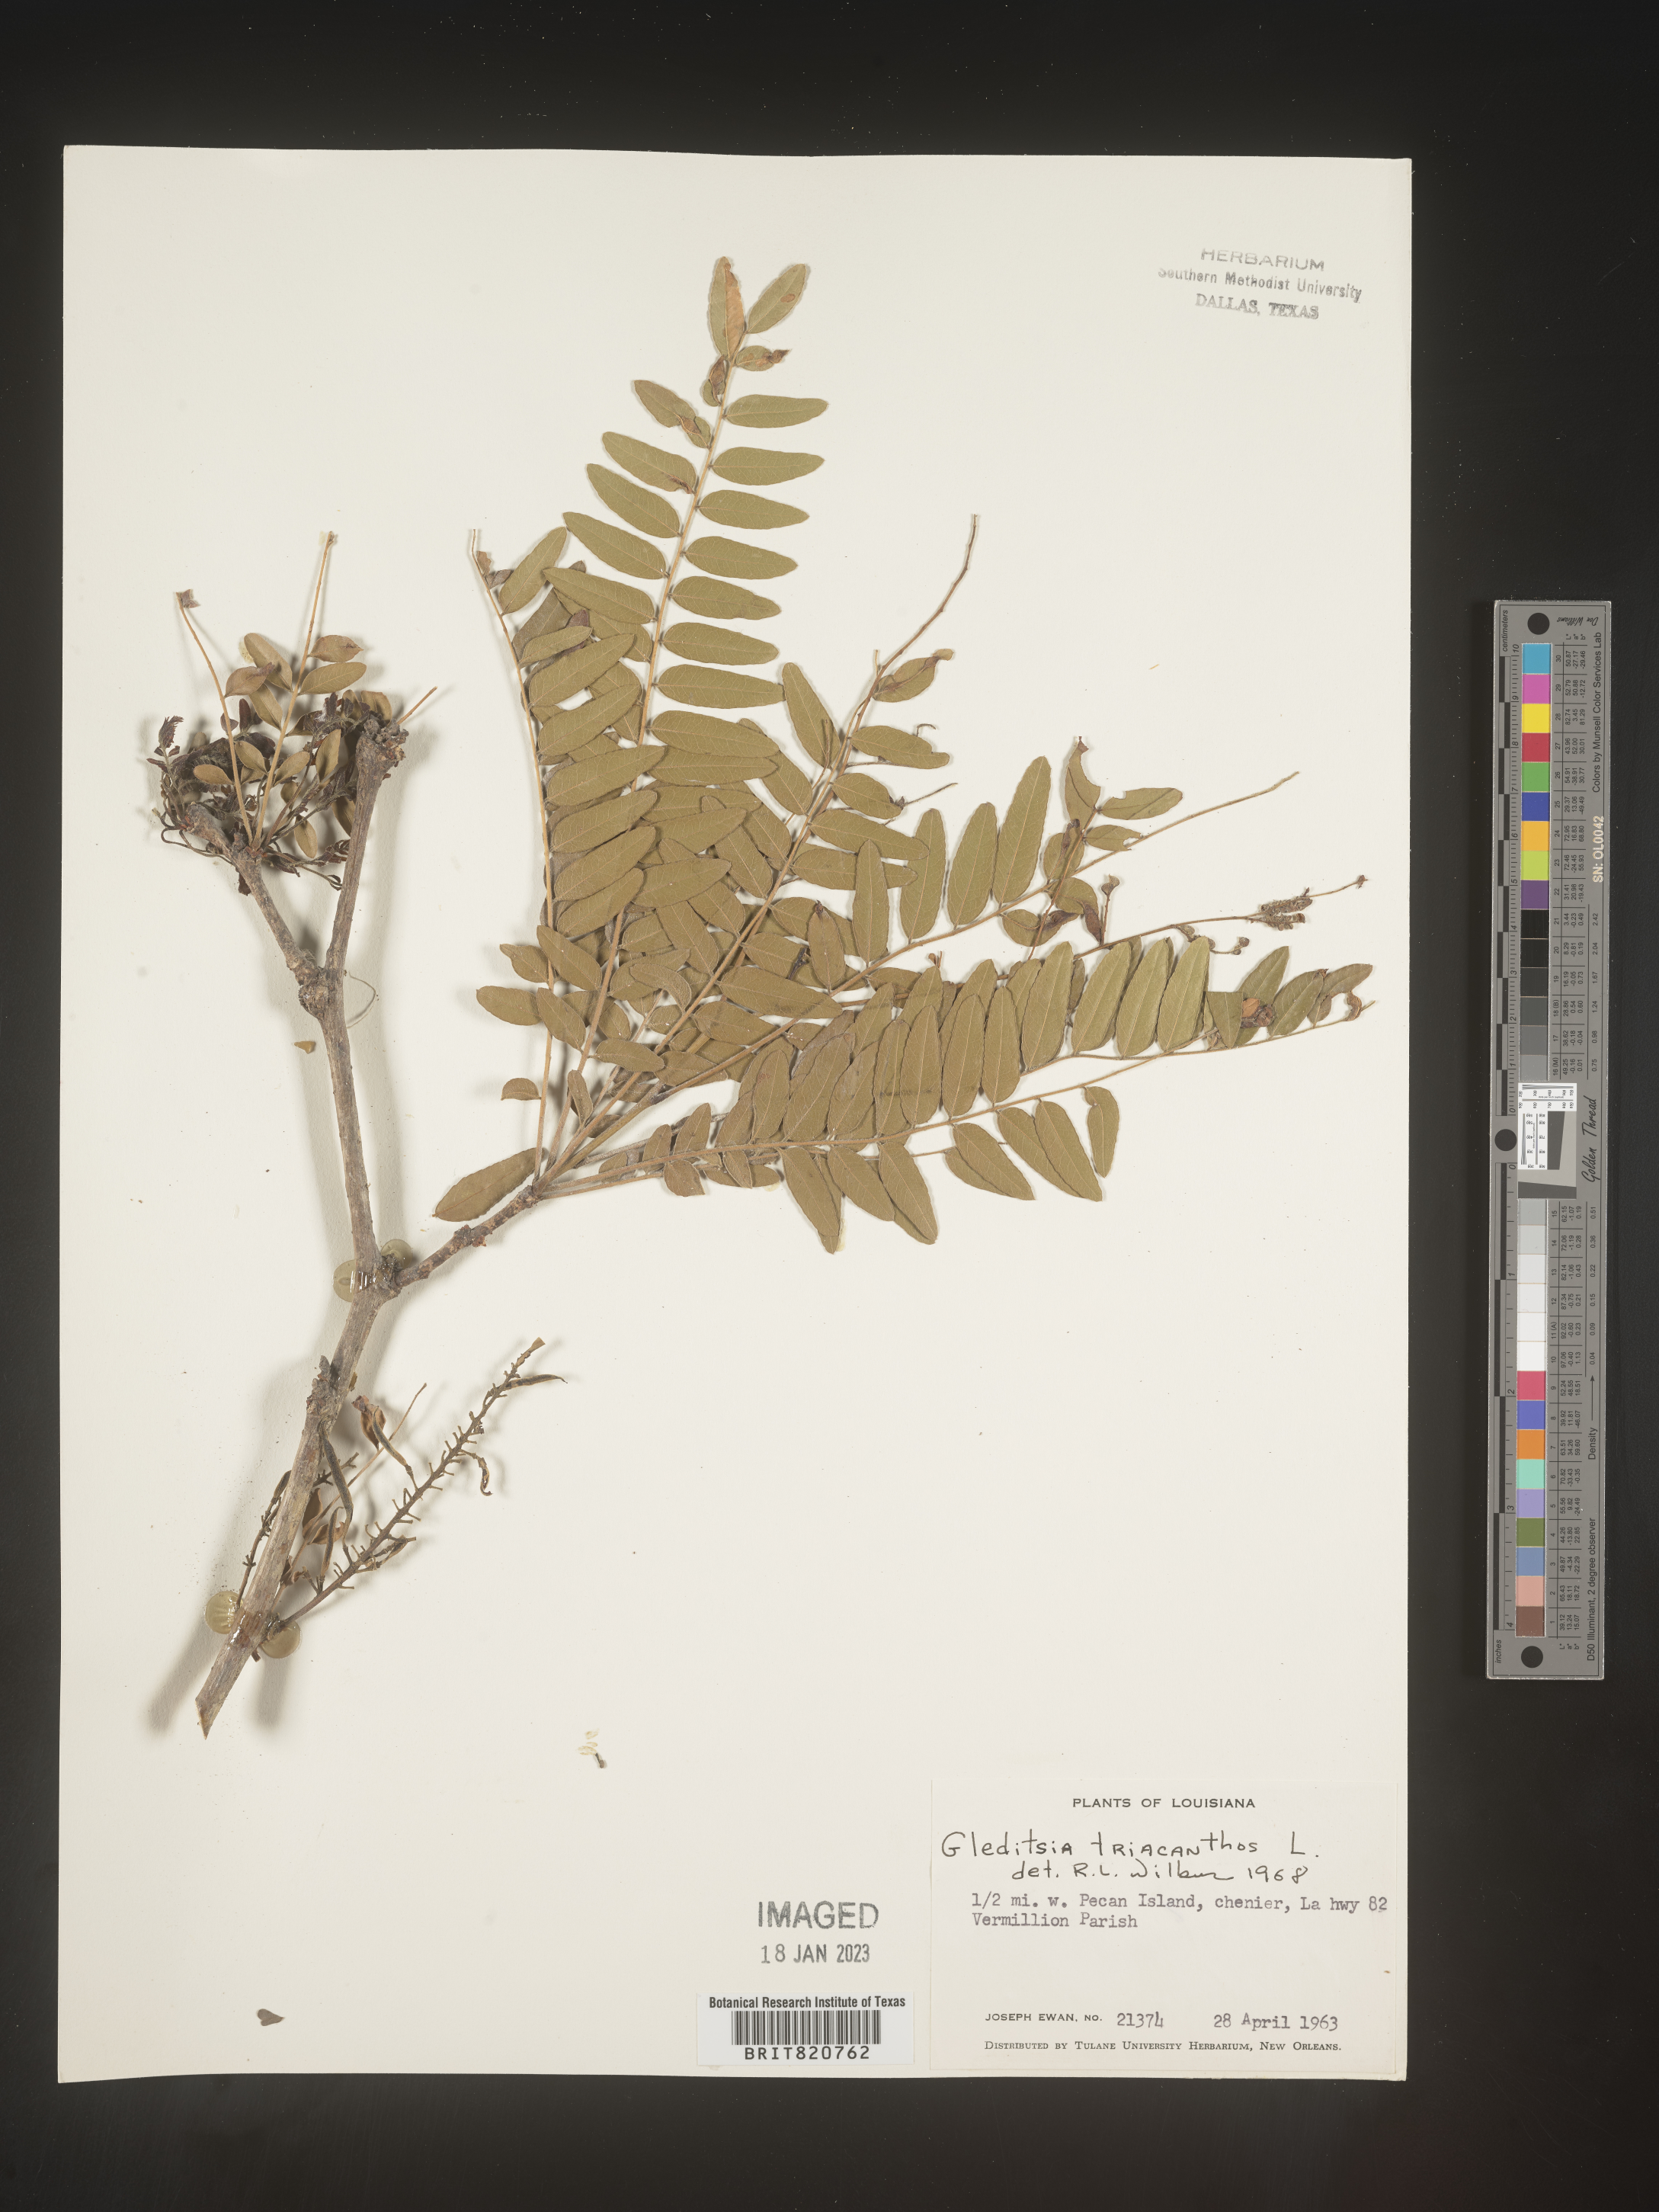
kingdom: Plantae
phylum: Tracheophyta
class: Magnoliopsida
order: Fabales
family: Fabaceae
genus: Gleditsia
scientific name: Gleditsia triacanthos
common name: Common honeylocust
